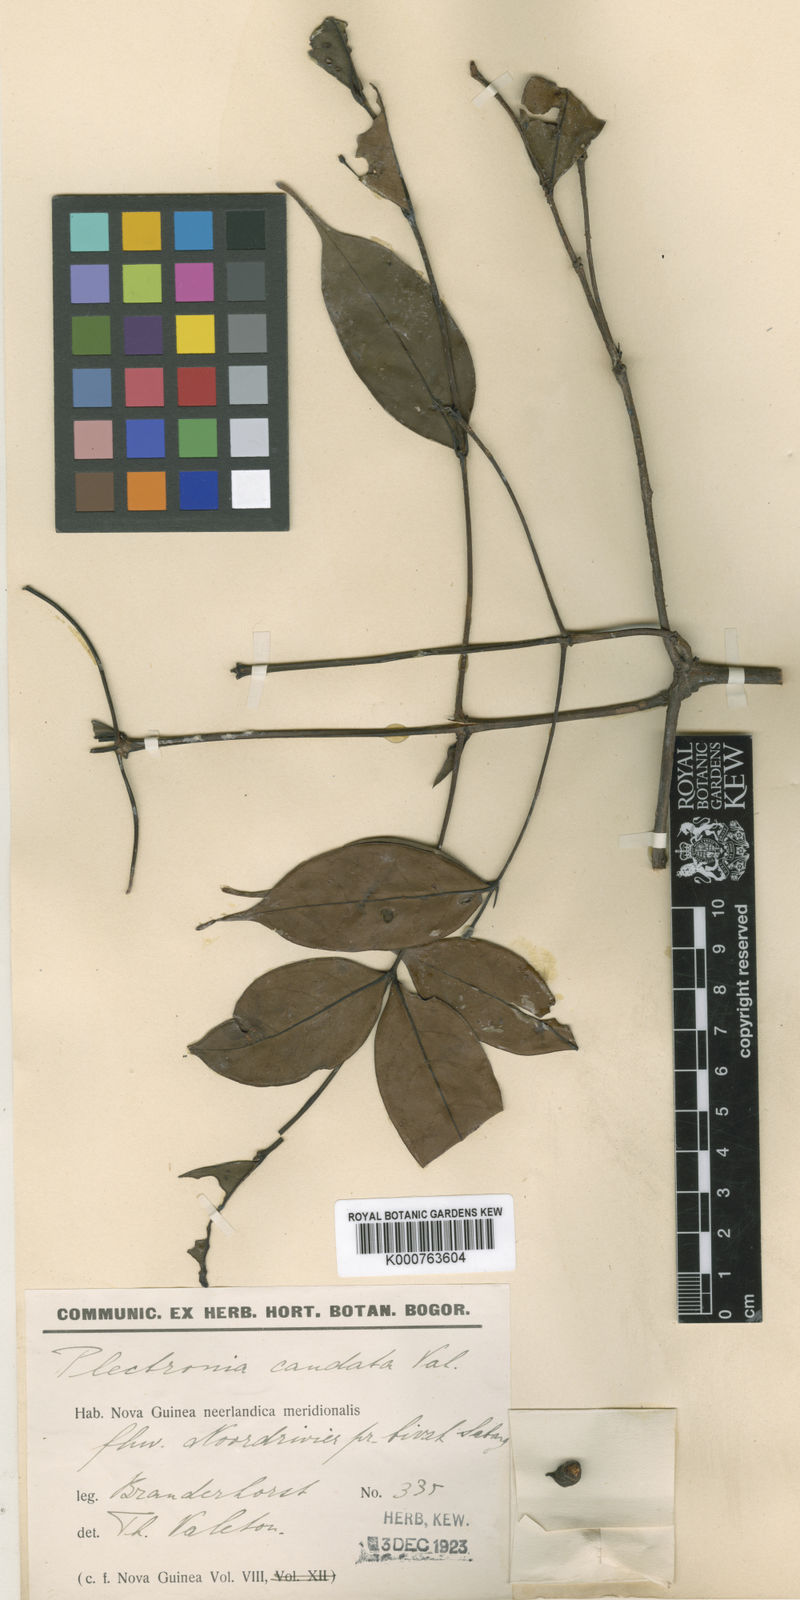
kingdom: Plantae
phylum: Tracheophyta
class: Magnoliopsida
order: Gentianales
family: Rubiaceae
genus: Cyclophyllum
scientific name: Cyclophyllum caudatum
